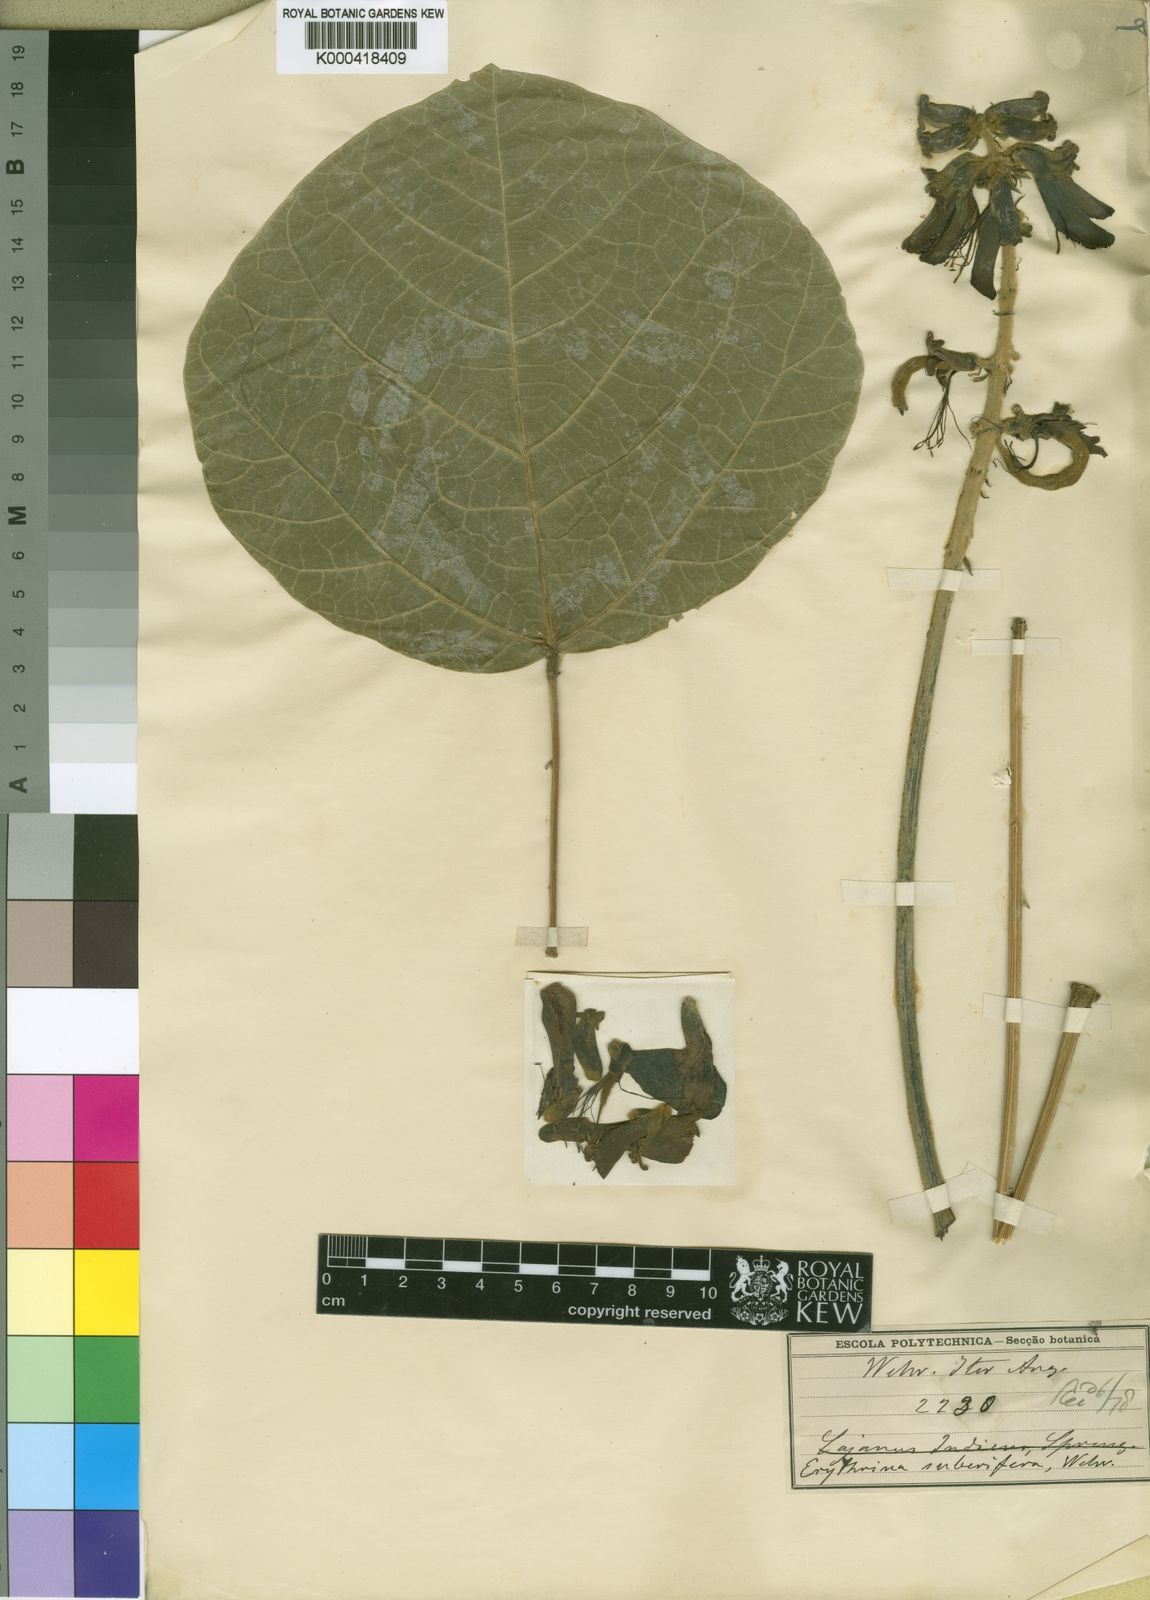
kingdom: Plantae
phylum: Tracheophyta
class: Magnoliopsida
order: Fabales
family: Fabaceae
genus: Erythrina
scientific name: Erythrina abyssinica
